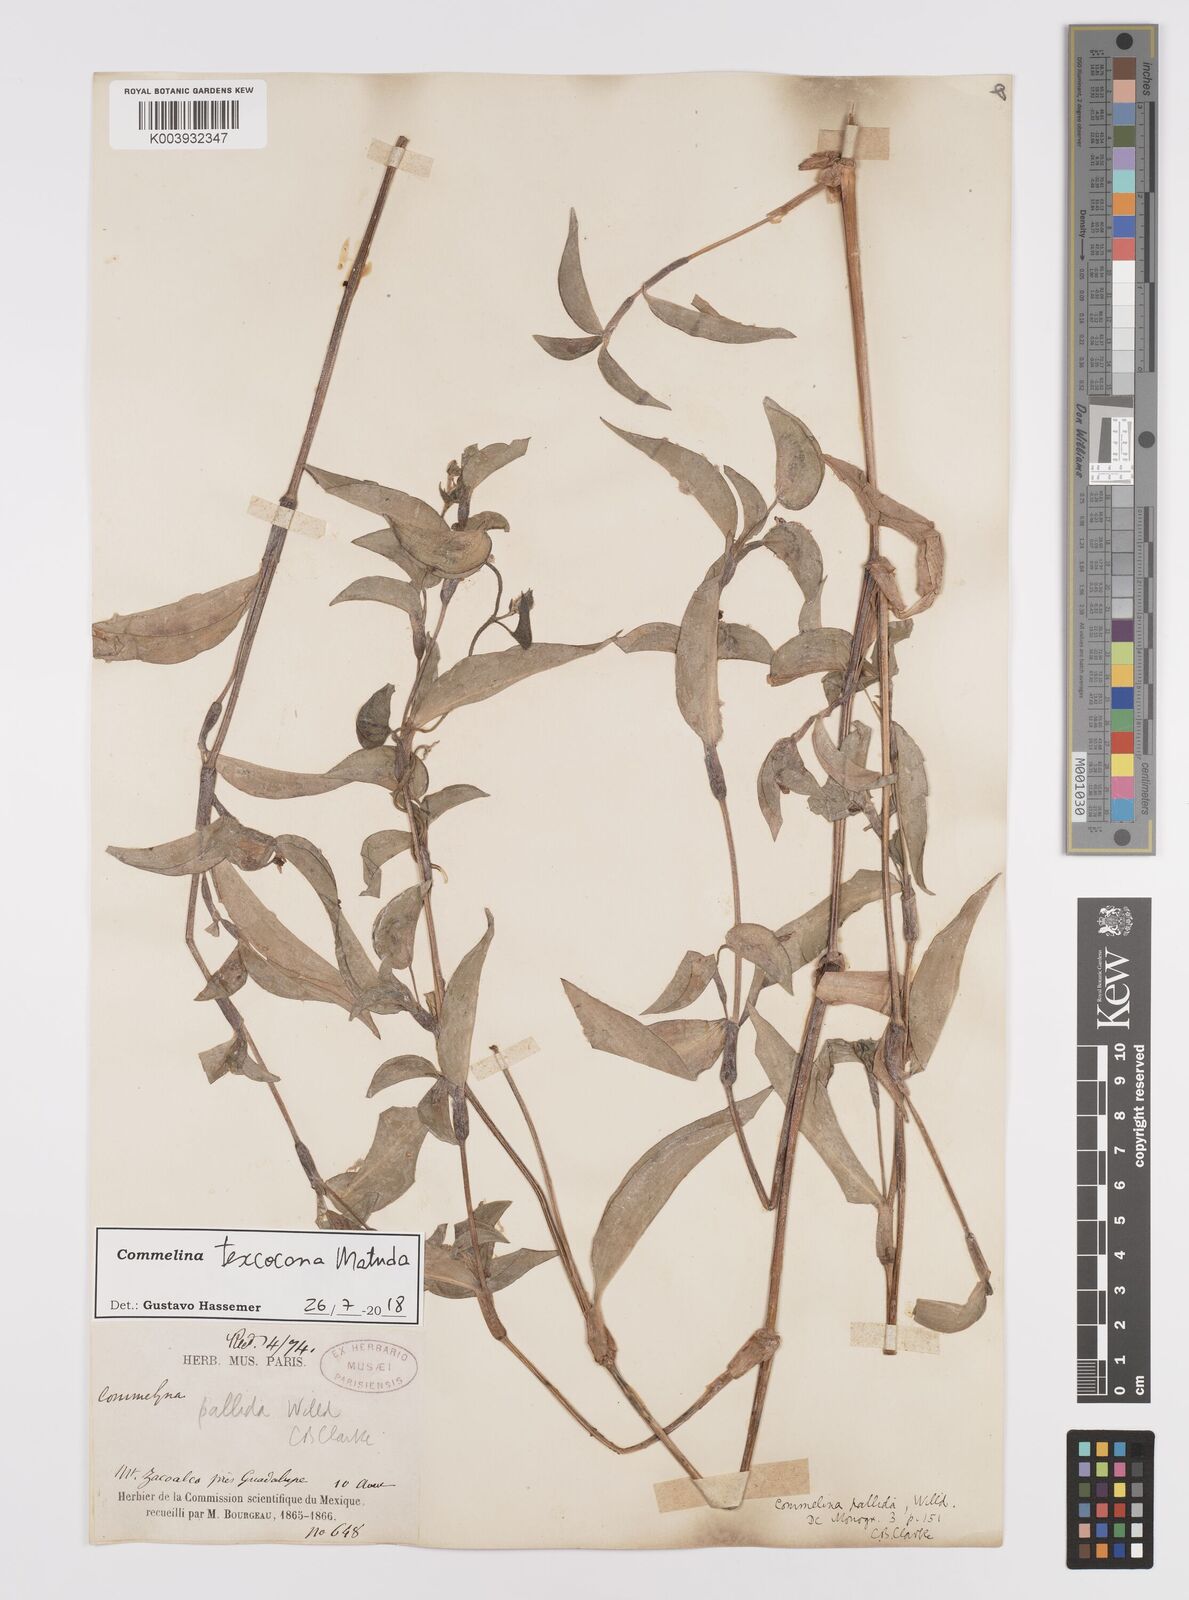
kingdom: Plantae
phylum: Tracheophyta
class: Liliopsida
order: Commelinales
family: Commelinaceae
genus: Commelina
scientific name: Commelina texcocana
